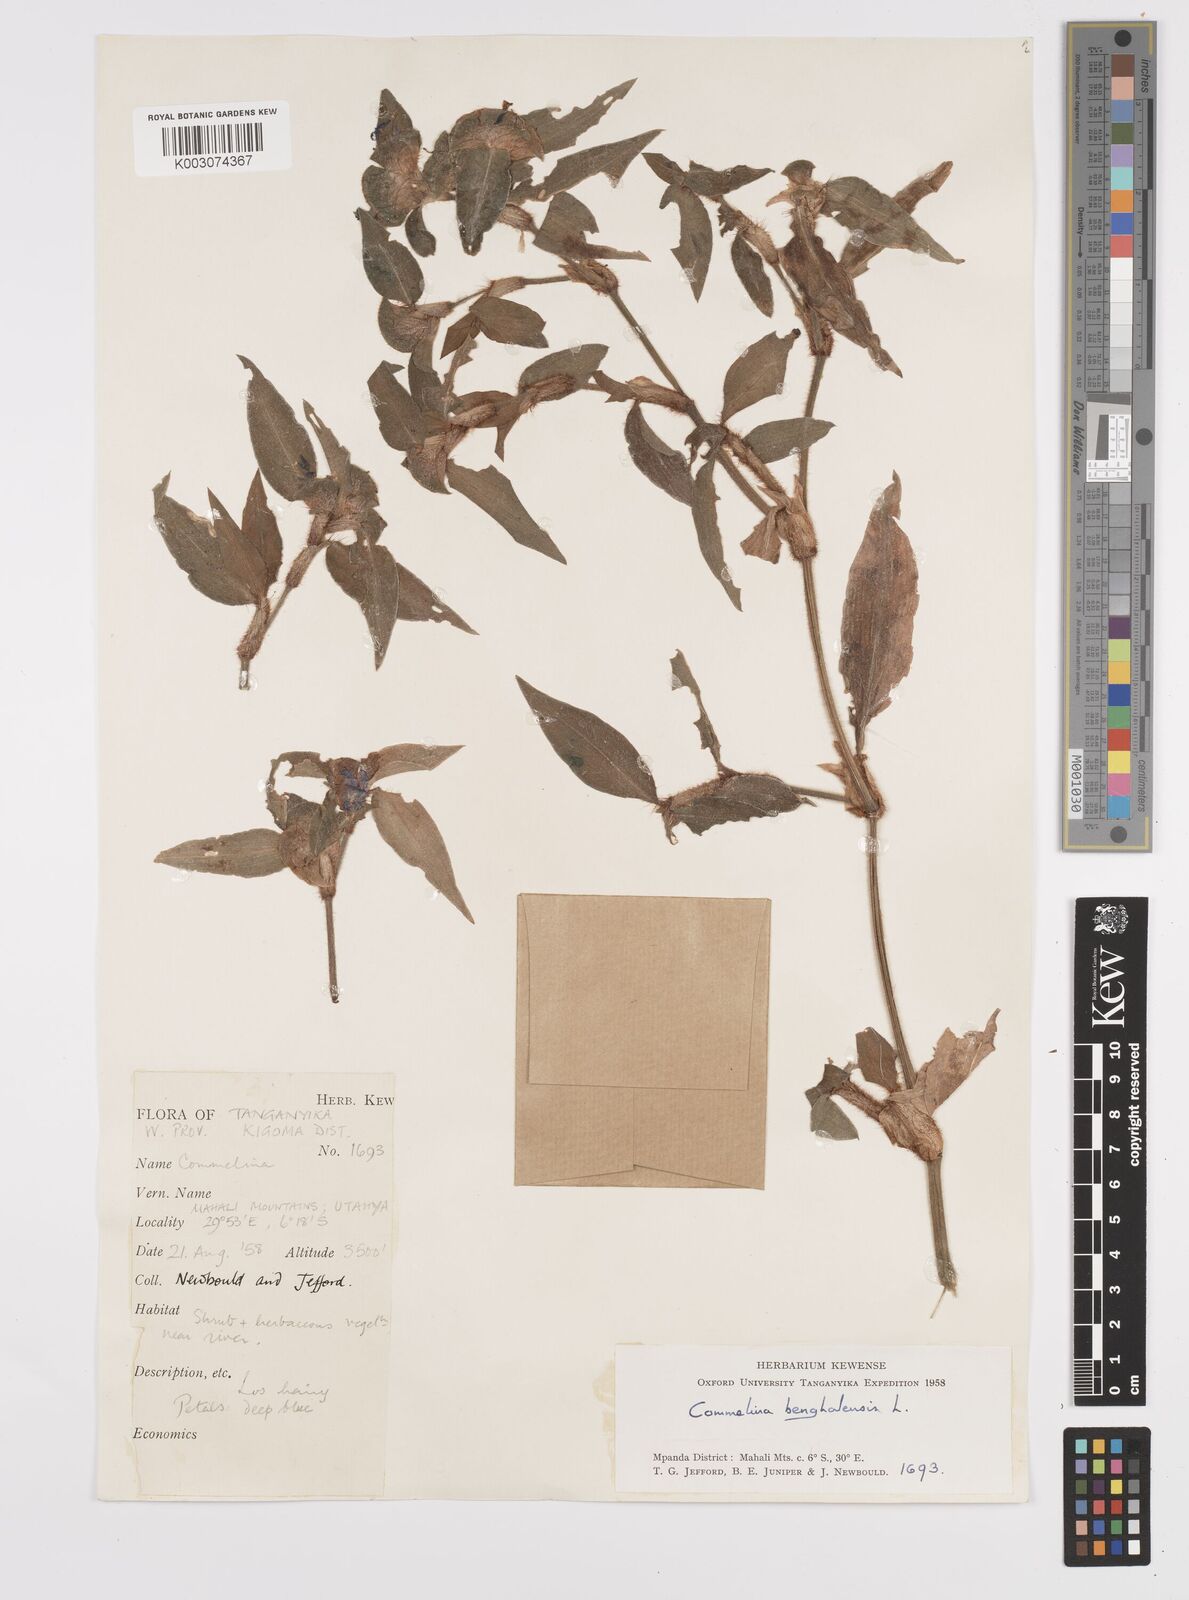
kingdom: Plantae
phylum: Tracheophyta
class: Liliopsida
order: Commelinales
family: Commelinaceae
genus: Commelina
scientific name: Commelina benghalensis
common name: Jio
